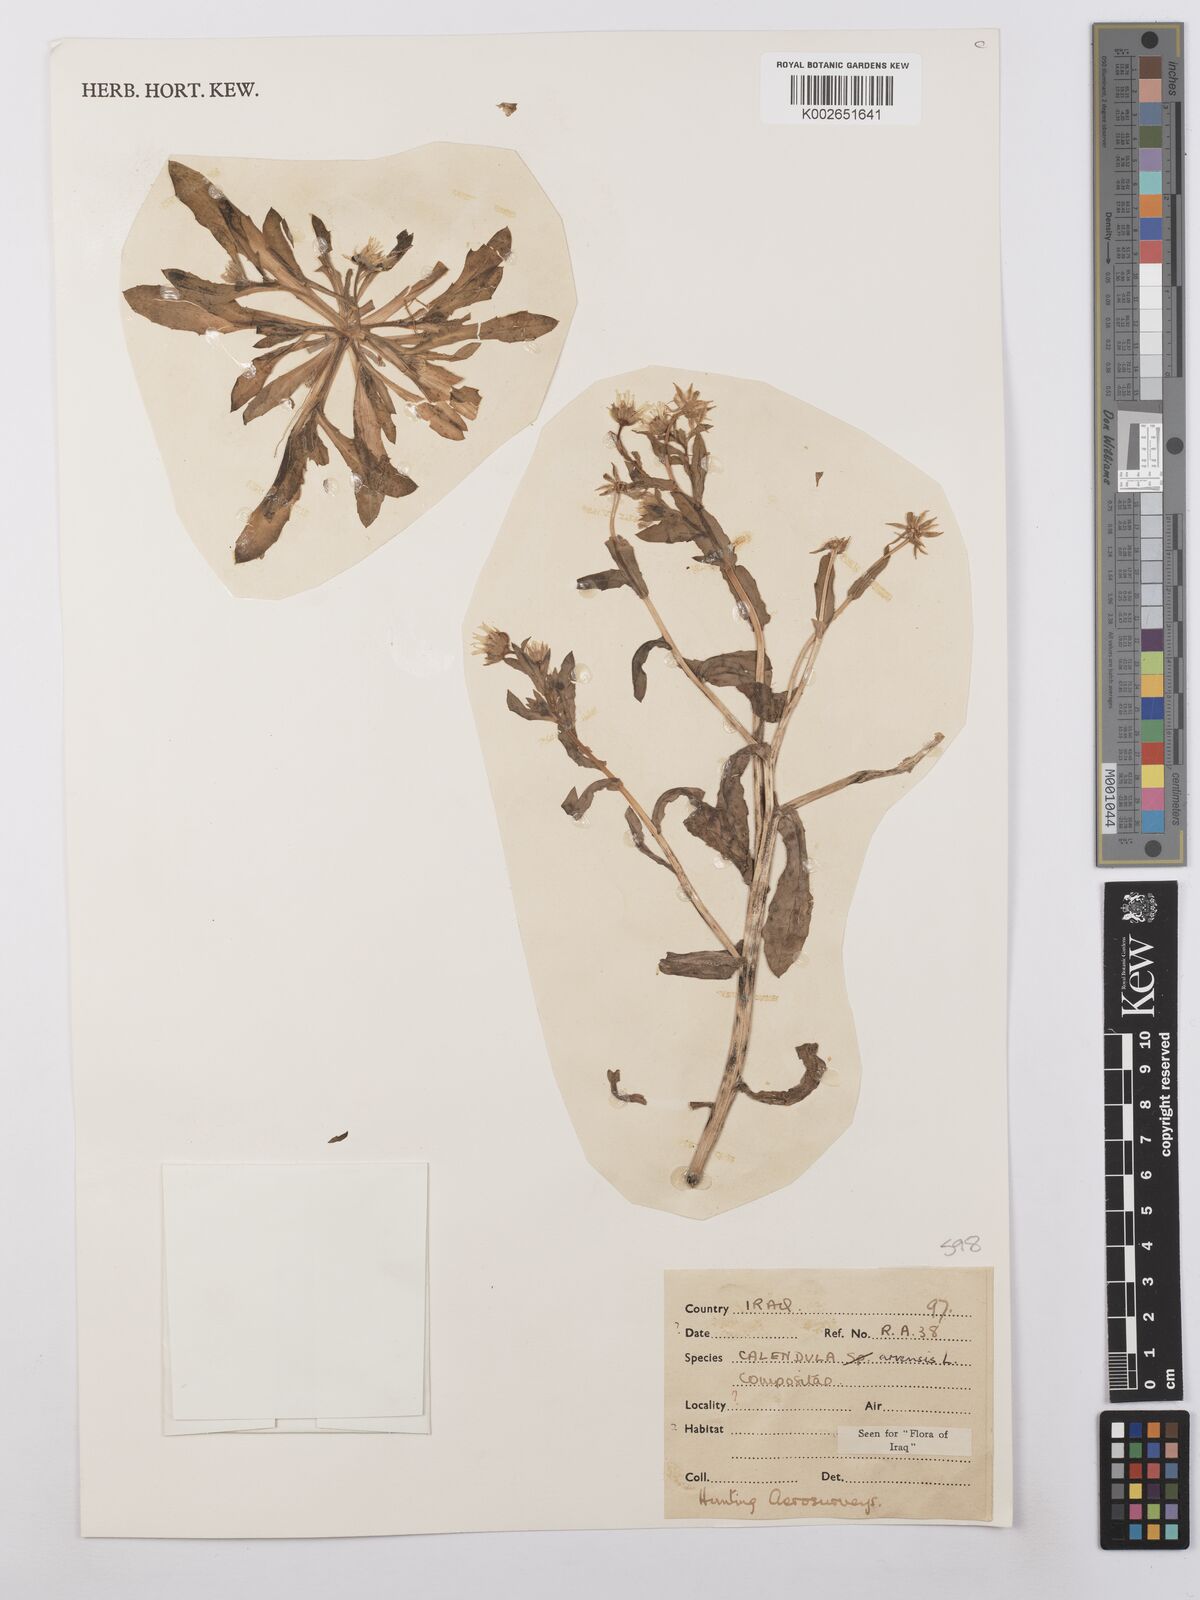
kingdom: Plantae
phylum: Tracheophyta
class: Magnoliopsida
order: Asterales
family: Asteraceae
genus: Calendula
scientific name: Calendula arvensis
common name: Field marigold
